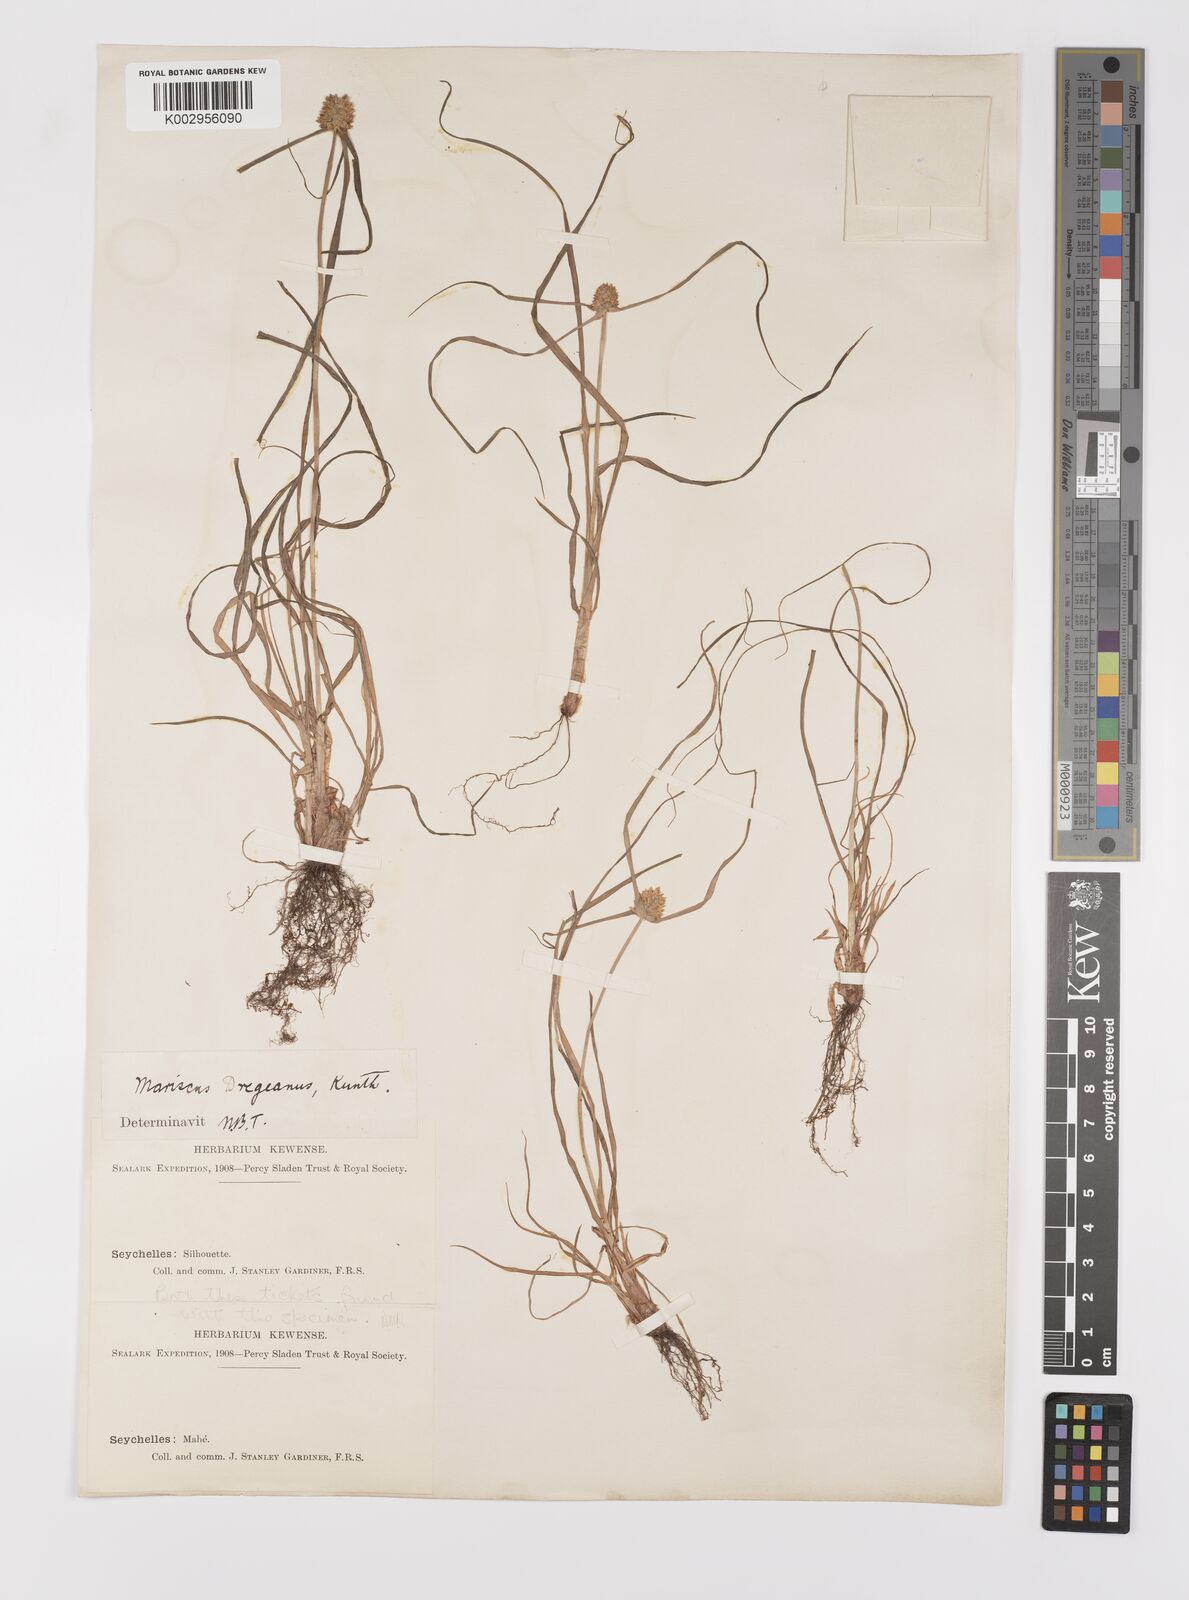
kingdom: Plantae
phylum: Tracheophyta
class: Liliopsida
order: Poales
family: Cyperaceae
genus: Cyperus
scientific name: Cyperus dubius
